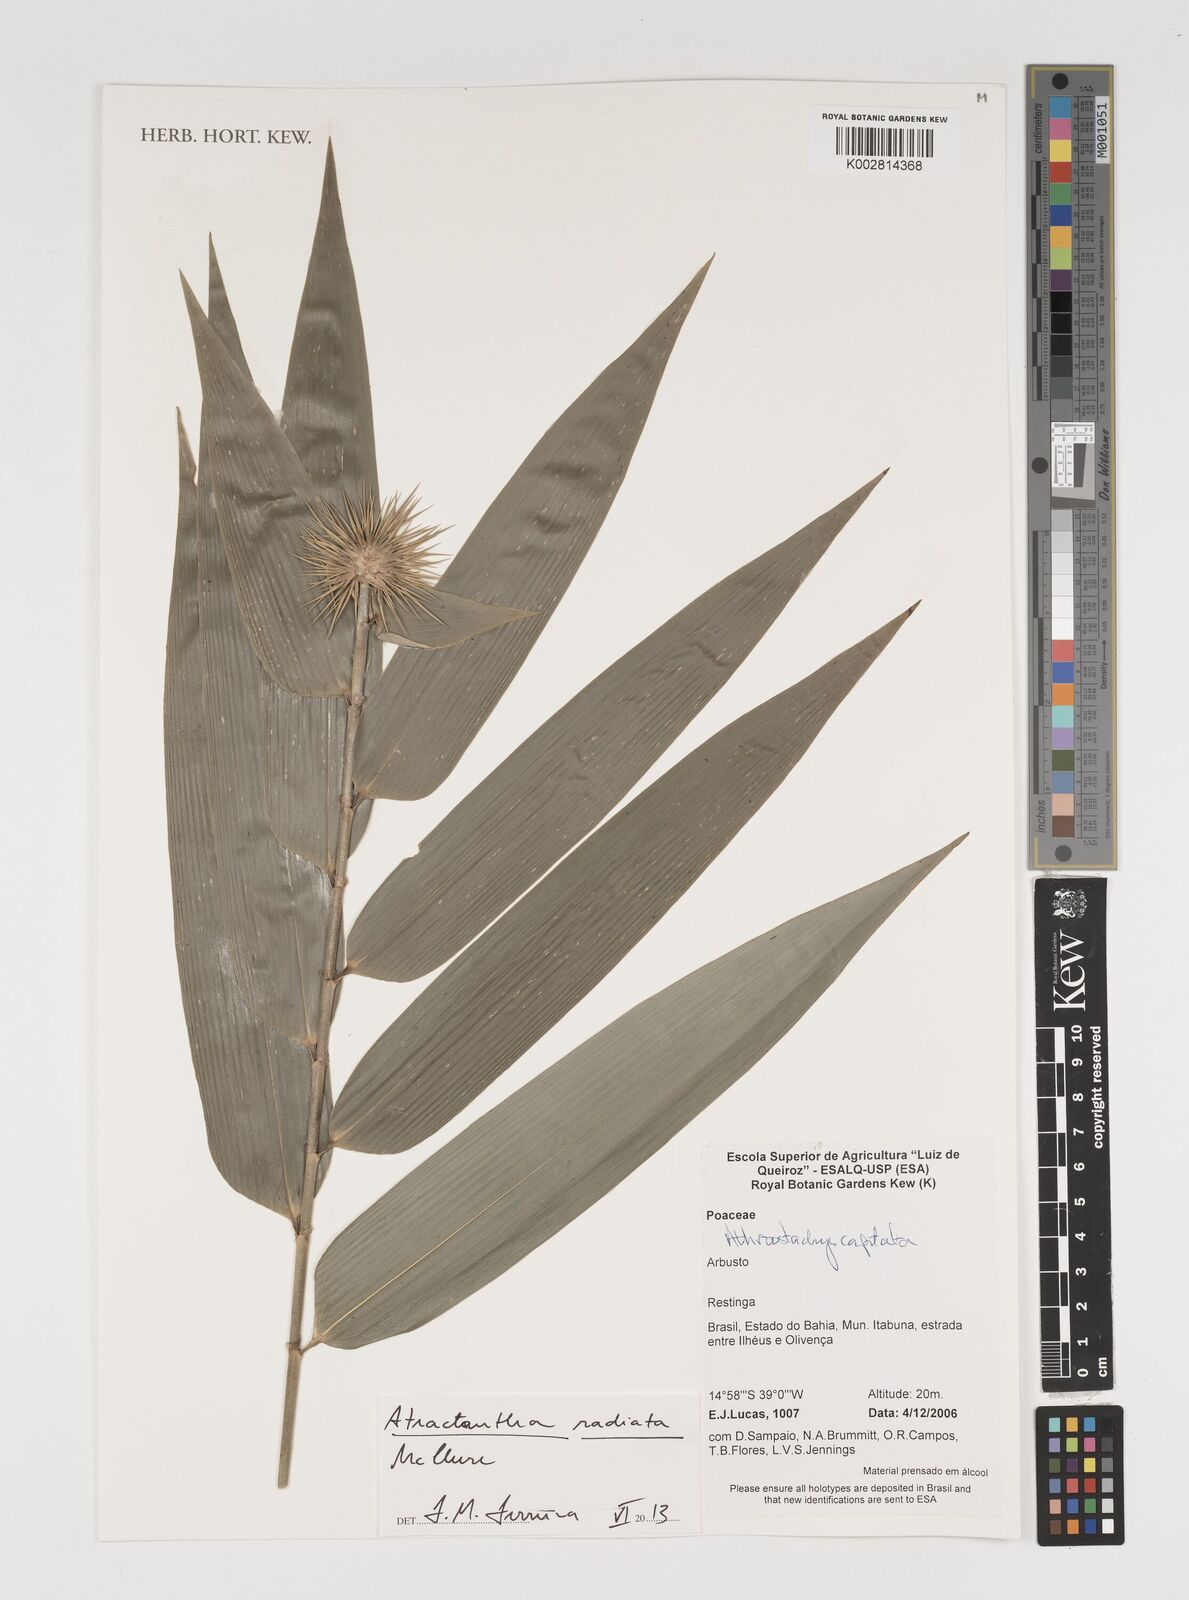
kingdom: Plantae
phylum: Tracheophyta
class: Liliopsida
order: Poales
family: Poaceae
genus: Atractantha
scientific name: Atractantha radiata
